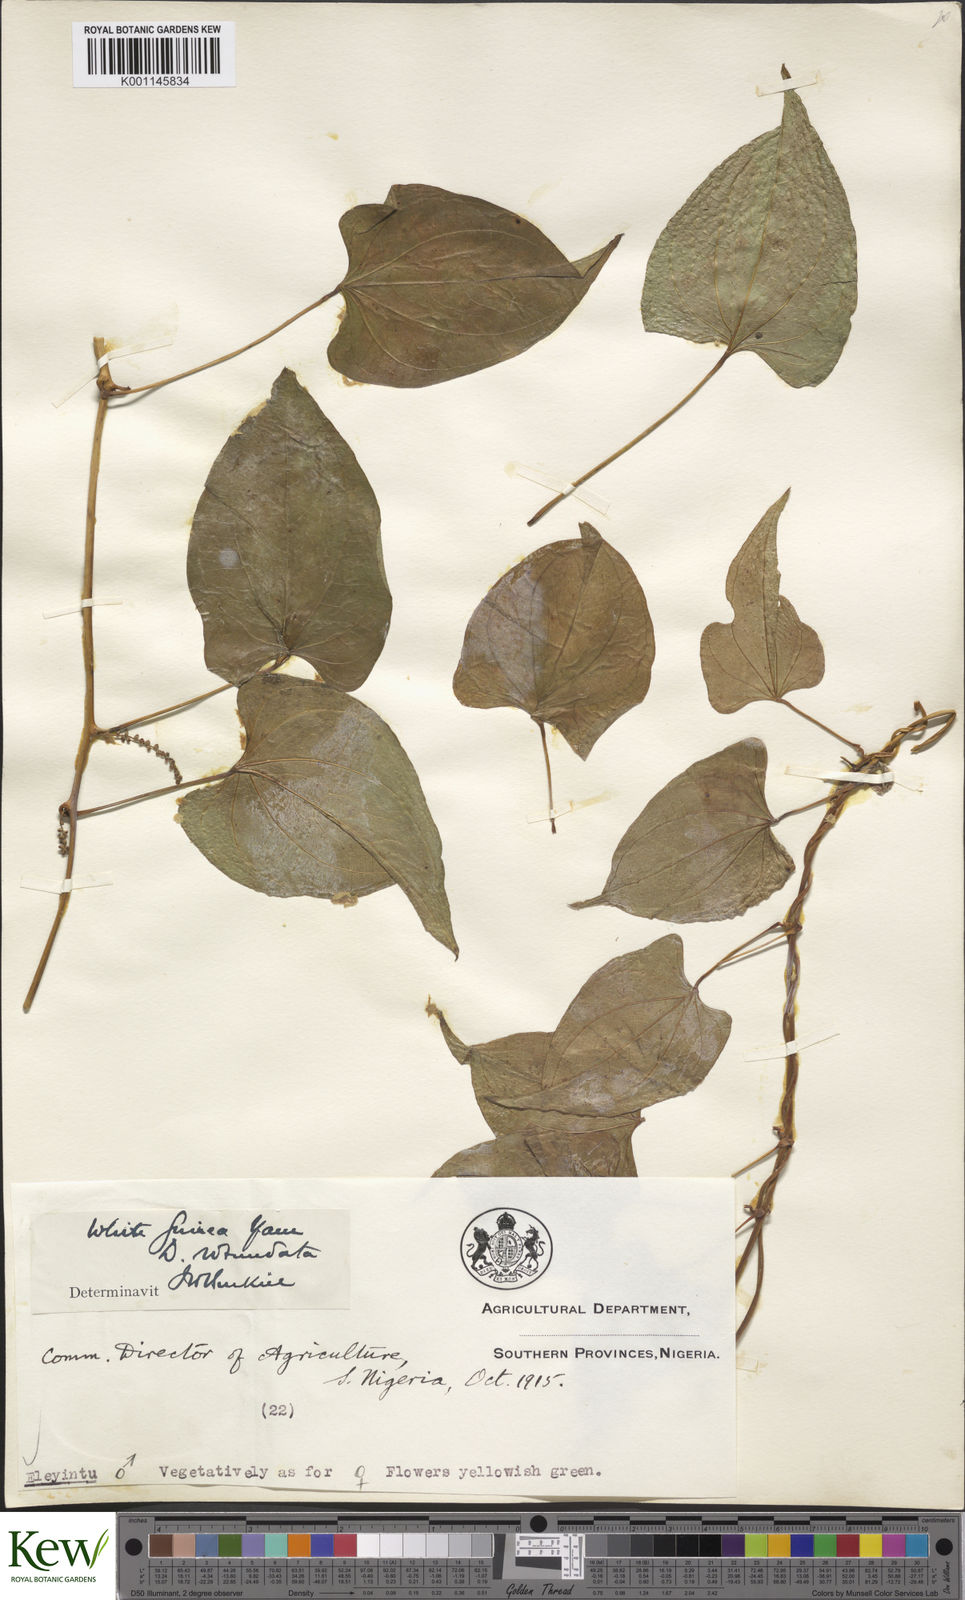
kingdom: Plantae
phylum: Tracheophyta
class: Liliopsida
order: Dioscoreales
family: Dioscoreaceae
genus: Dioscorea
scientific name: Dioscorea cayenensis
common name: Attoto yam
